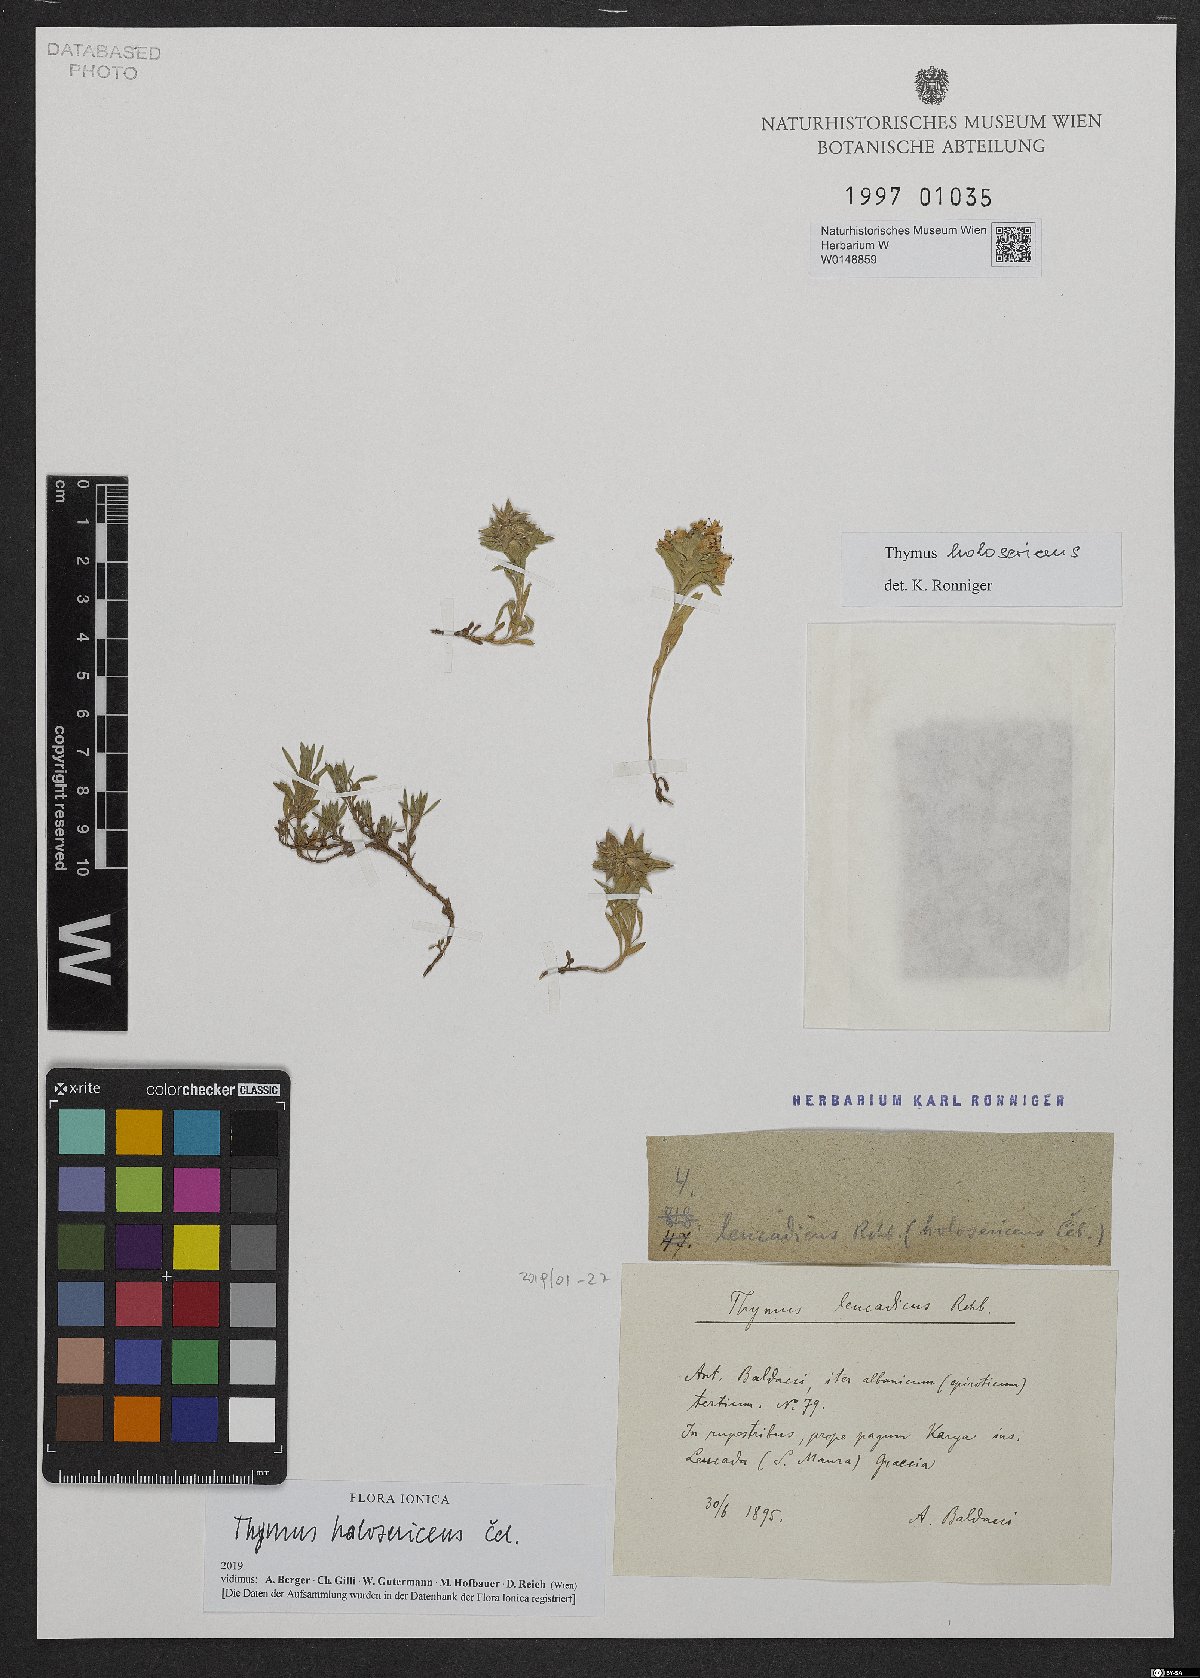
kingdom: Plantae
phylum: Tracheophyta
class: Magnoliopsida
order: Lamiales
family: Lamiaceae
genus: Thymus
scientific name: Thymus holosericeus
